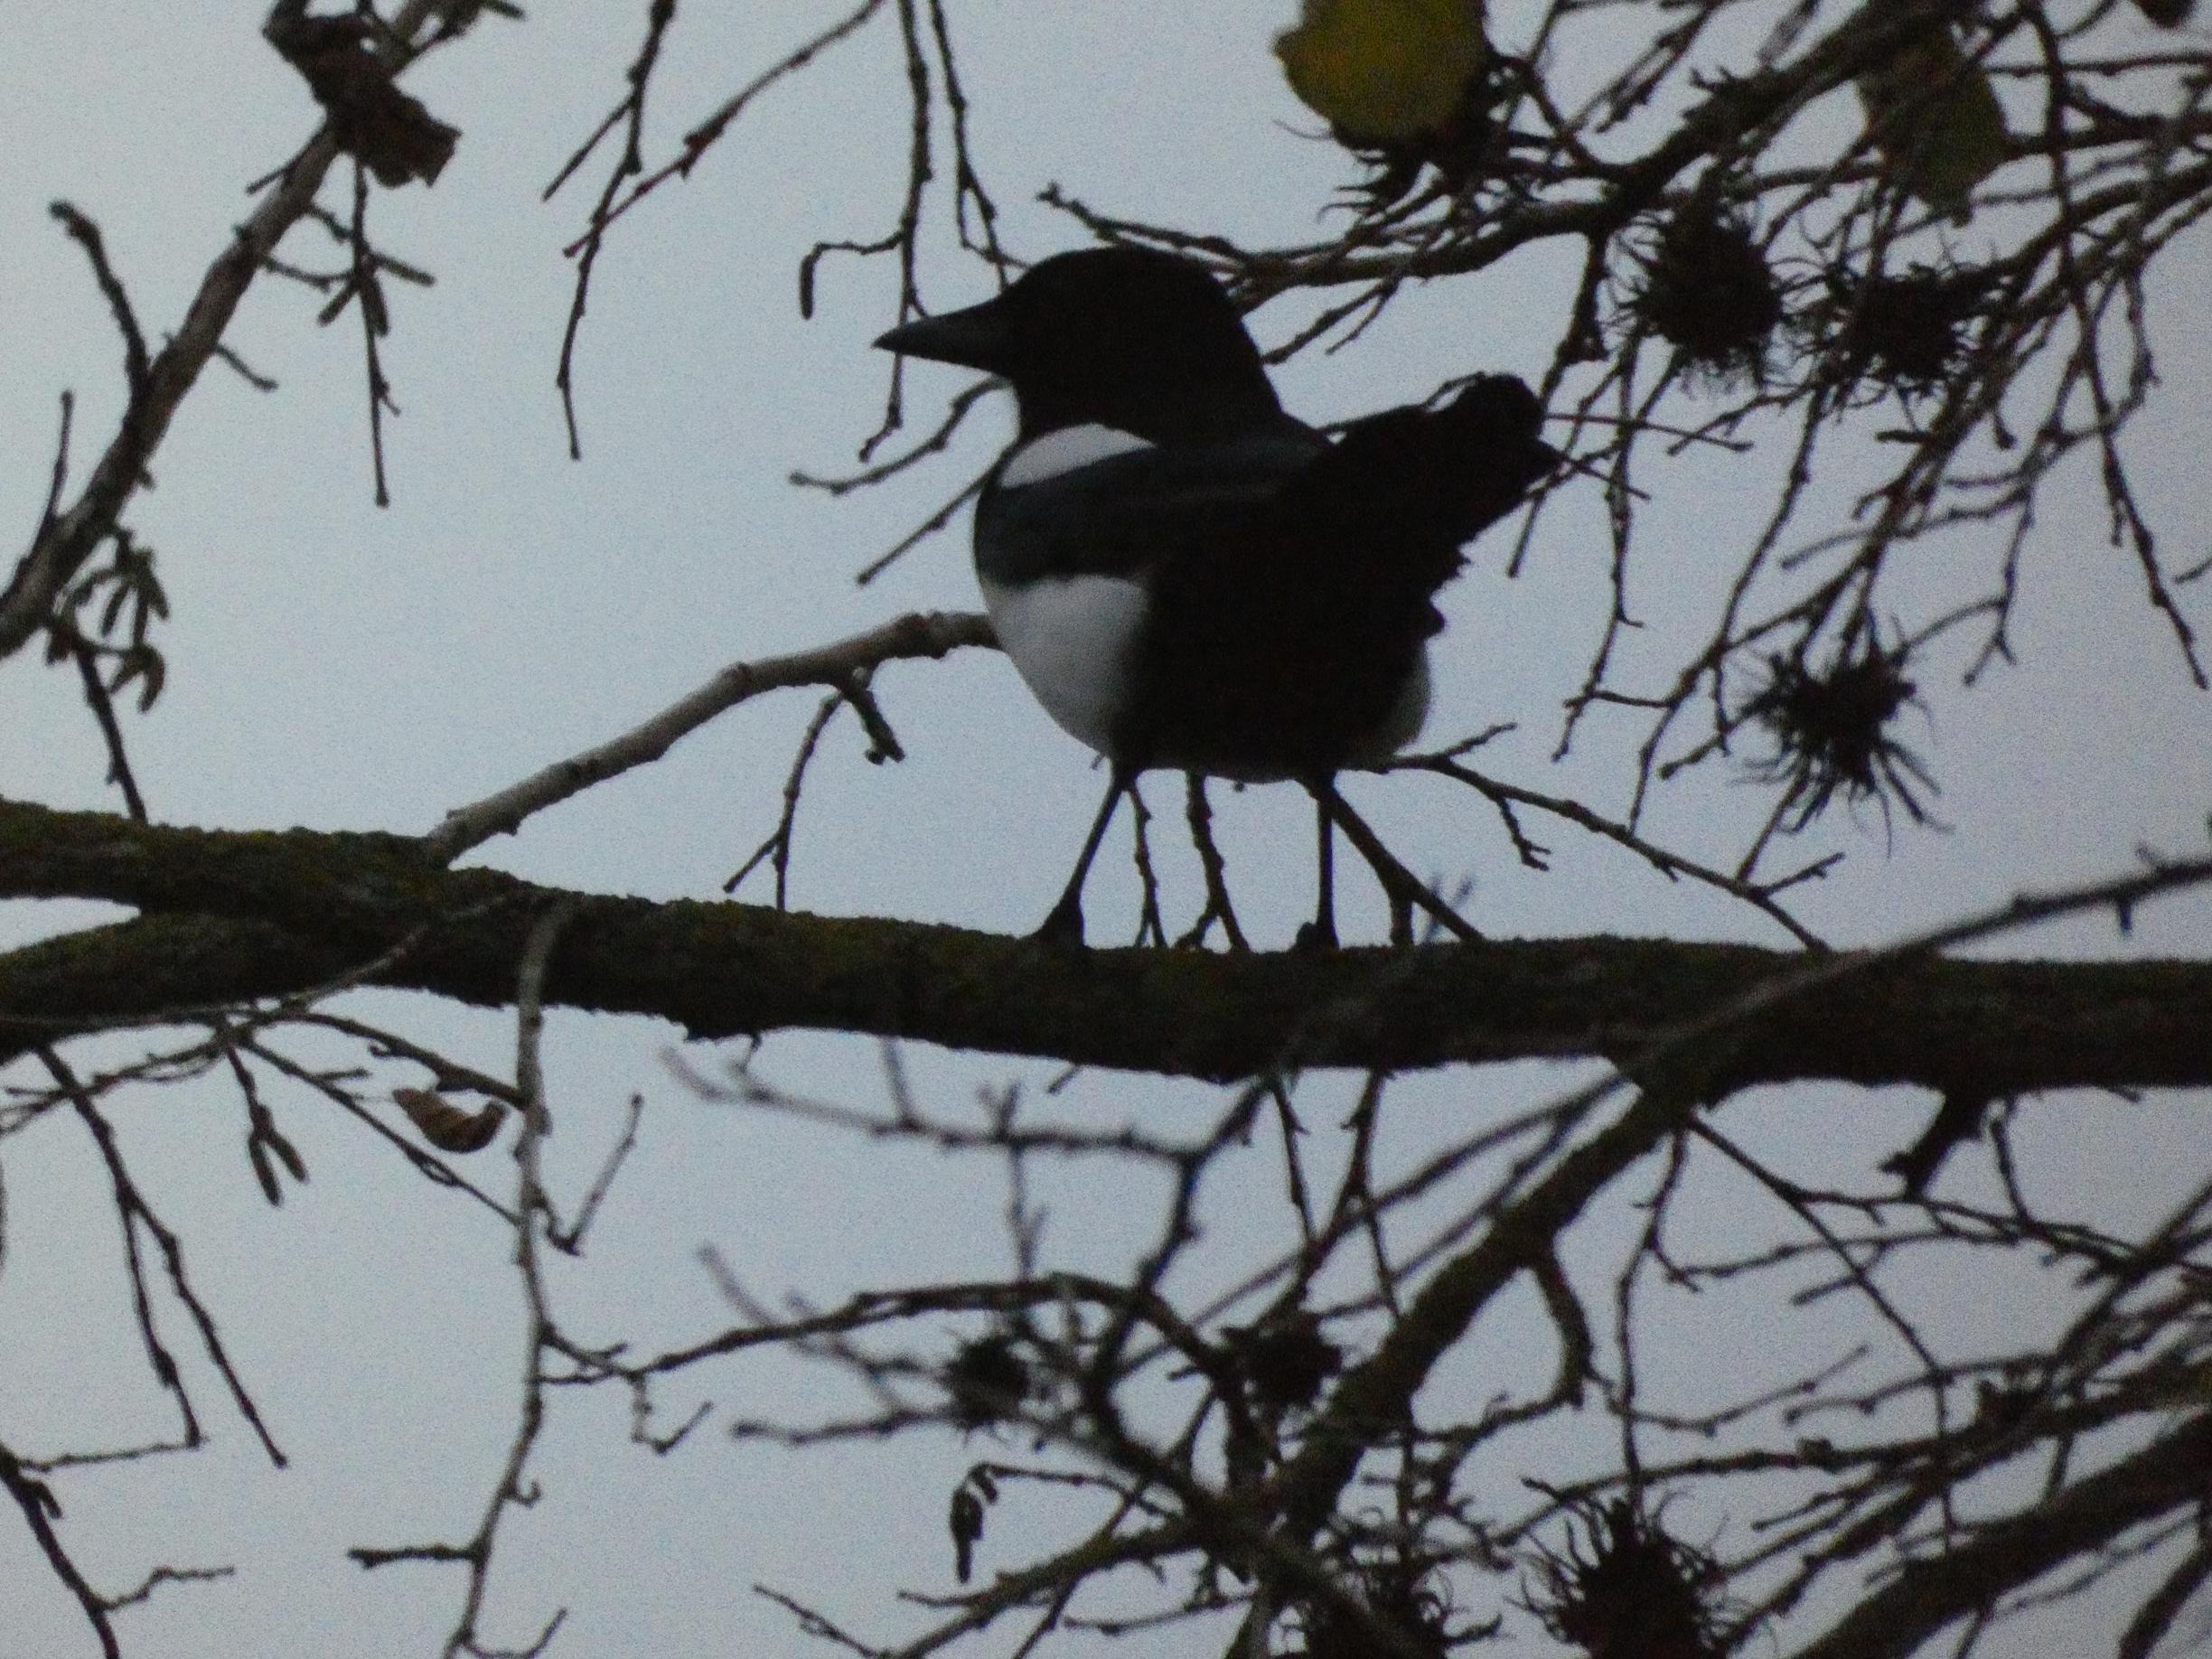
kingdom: Animalia
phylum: Chordata
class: Aves
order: Passeriformes
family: Corvidae
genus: Pica
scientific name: Pica pica
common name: Husskade
